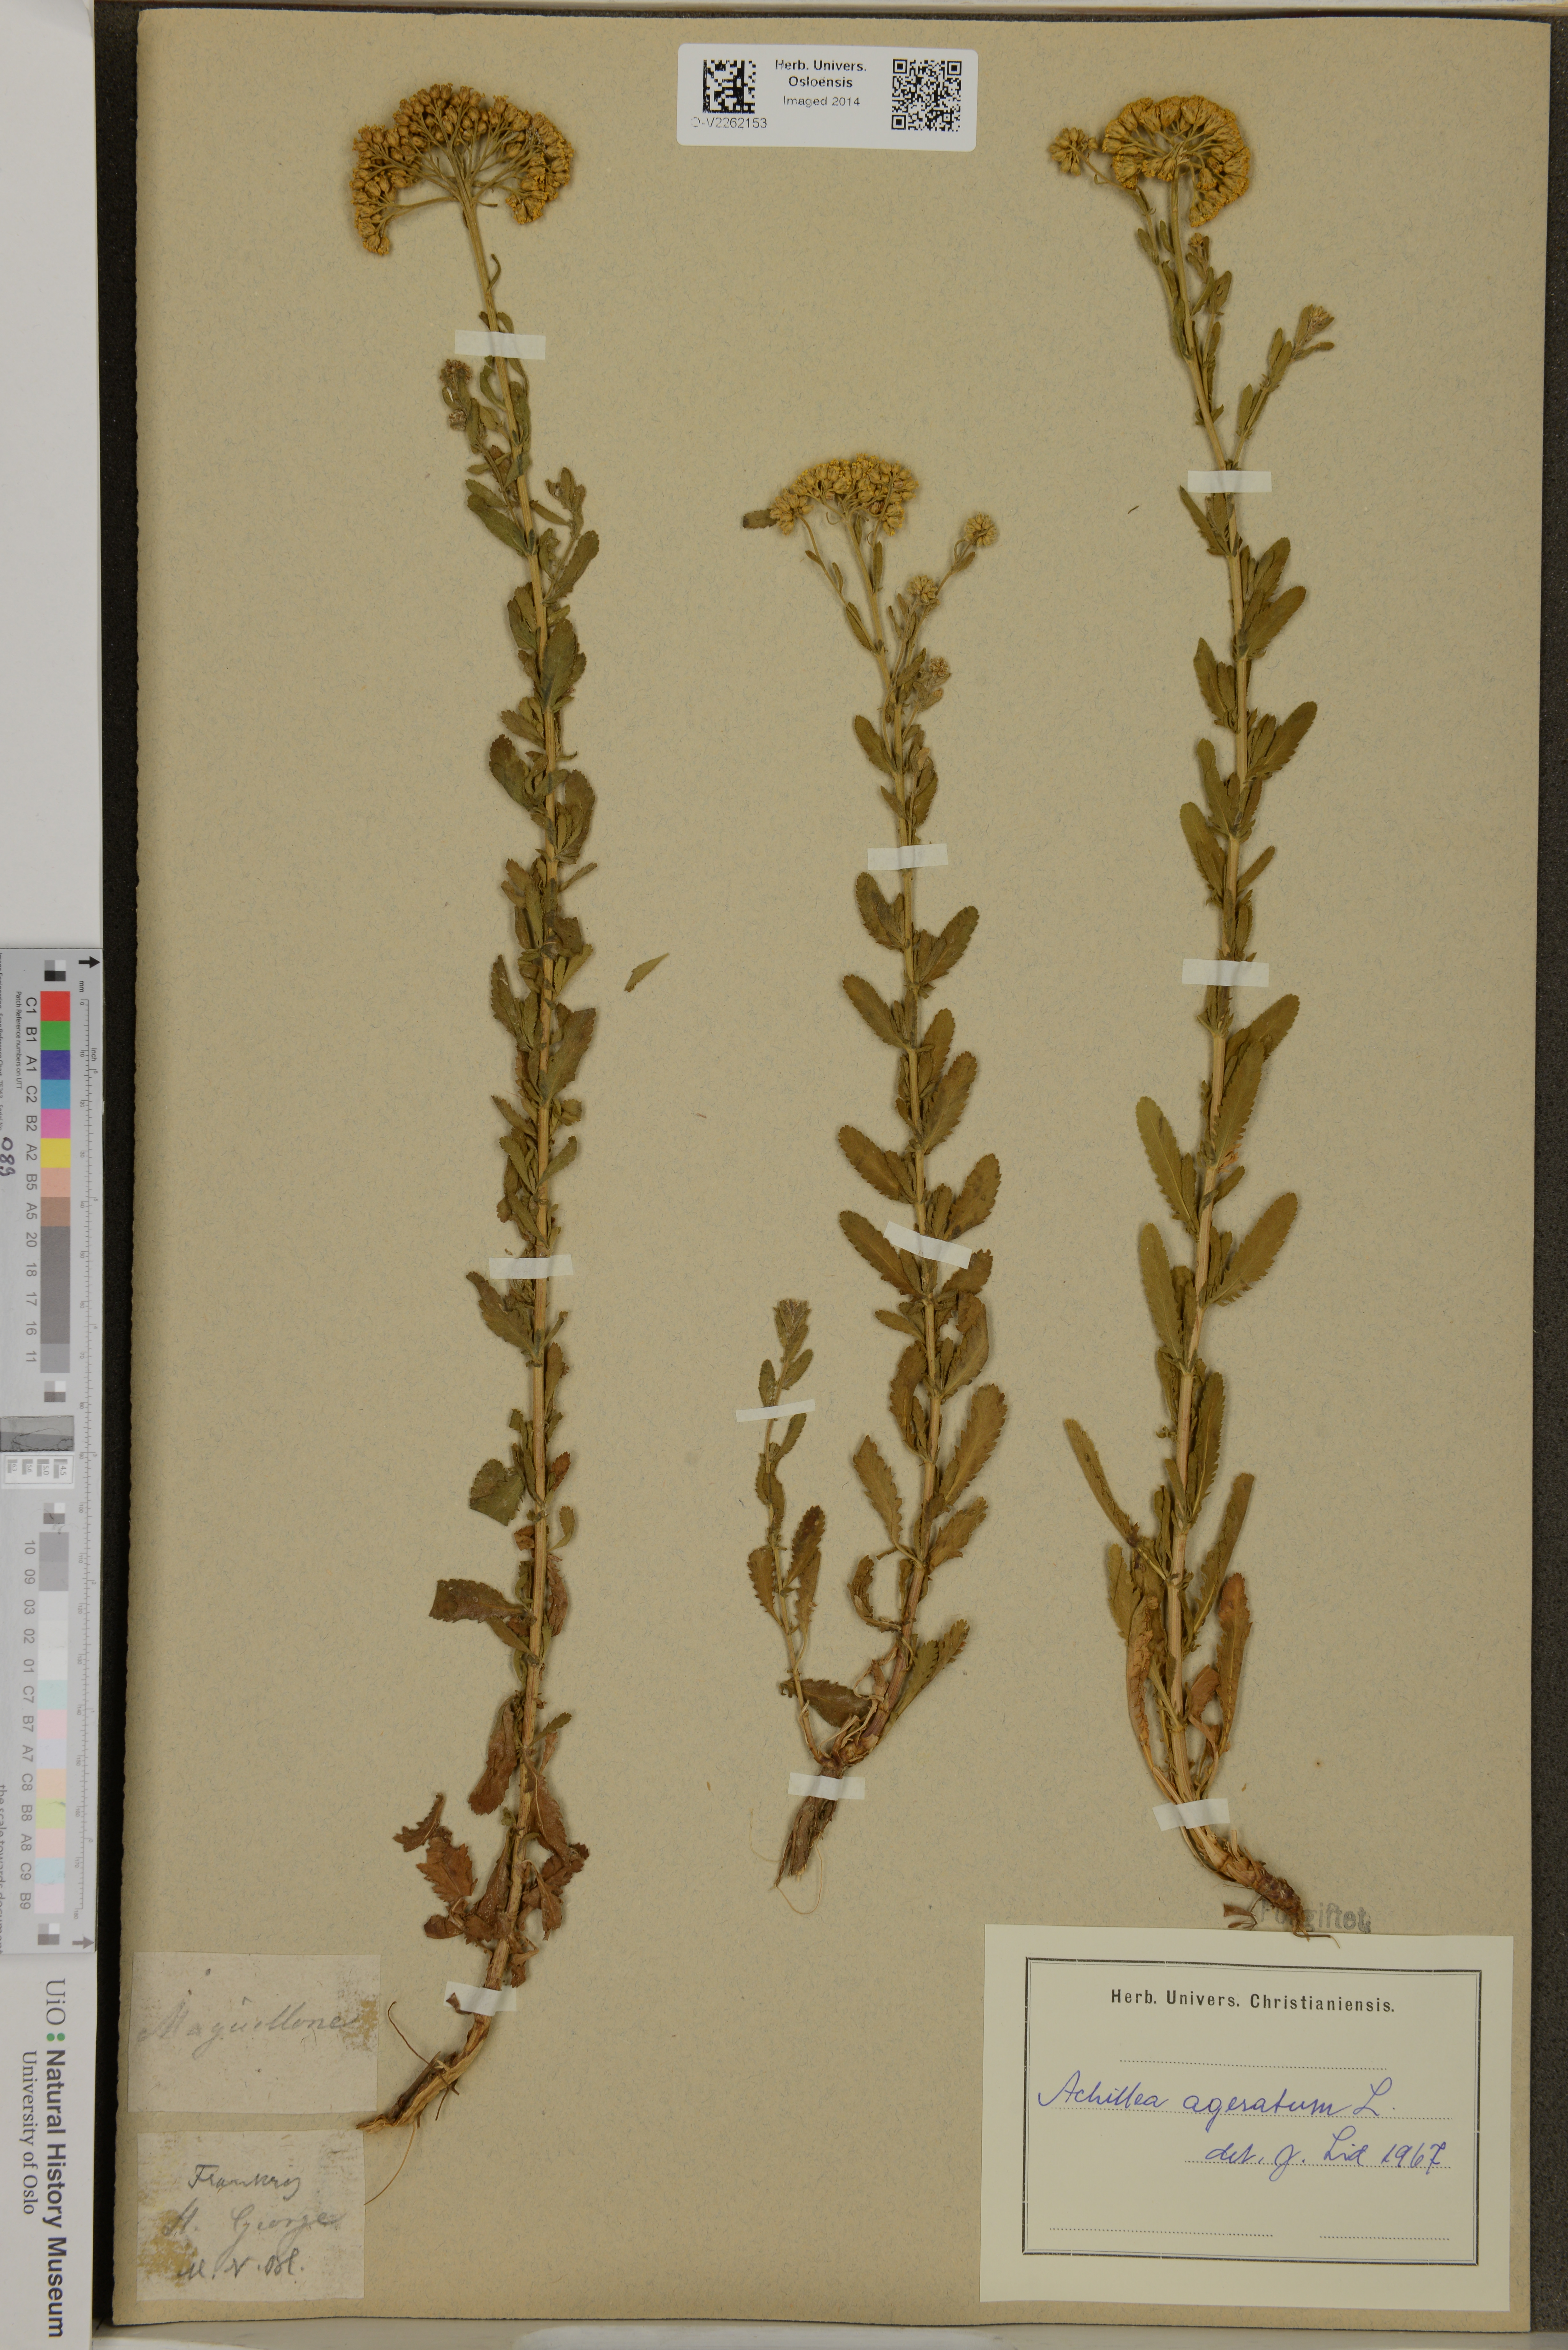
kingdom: Plantae
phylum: Tracheophyta
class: Magnoliopsida
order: Asterales
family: Asteraceae
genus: Achillea
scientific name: Achillea ageratum
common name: Sweet-nancy
